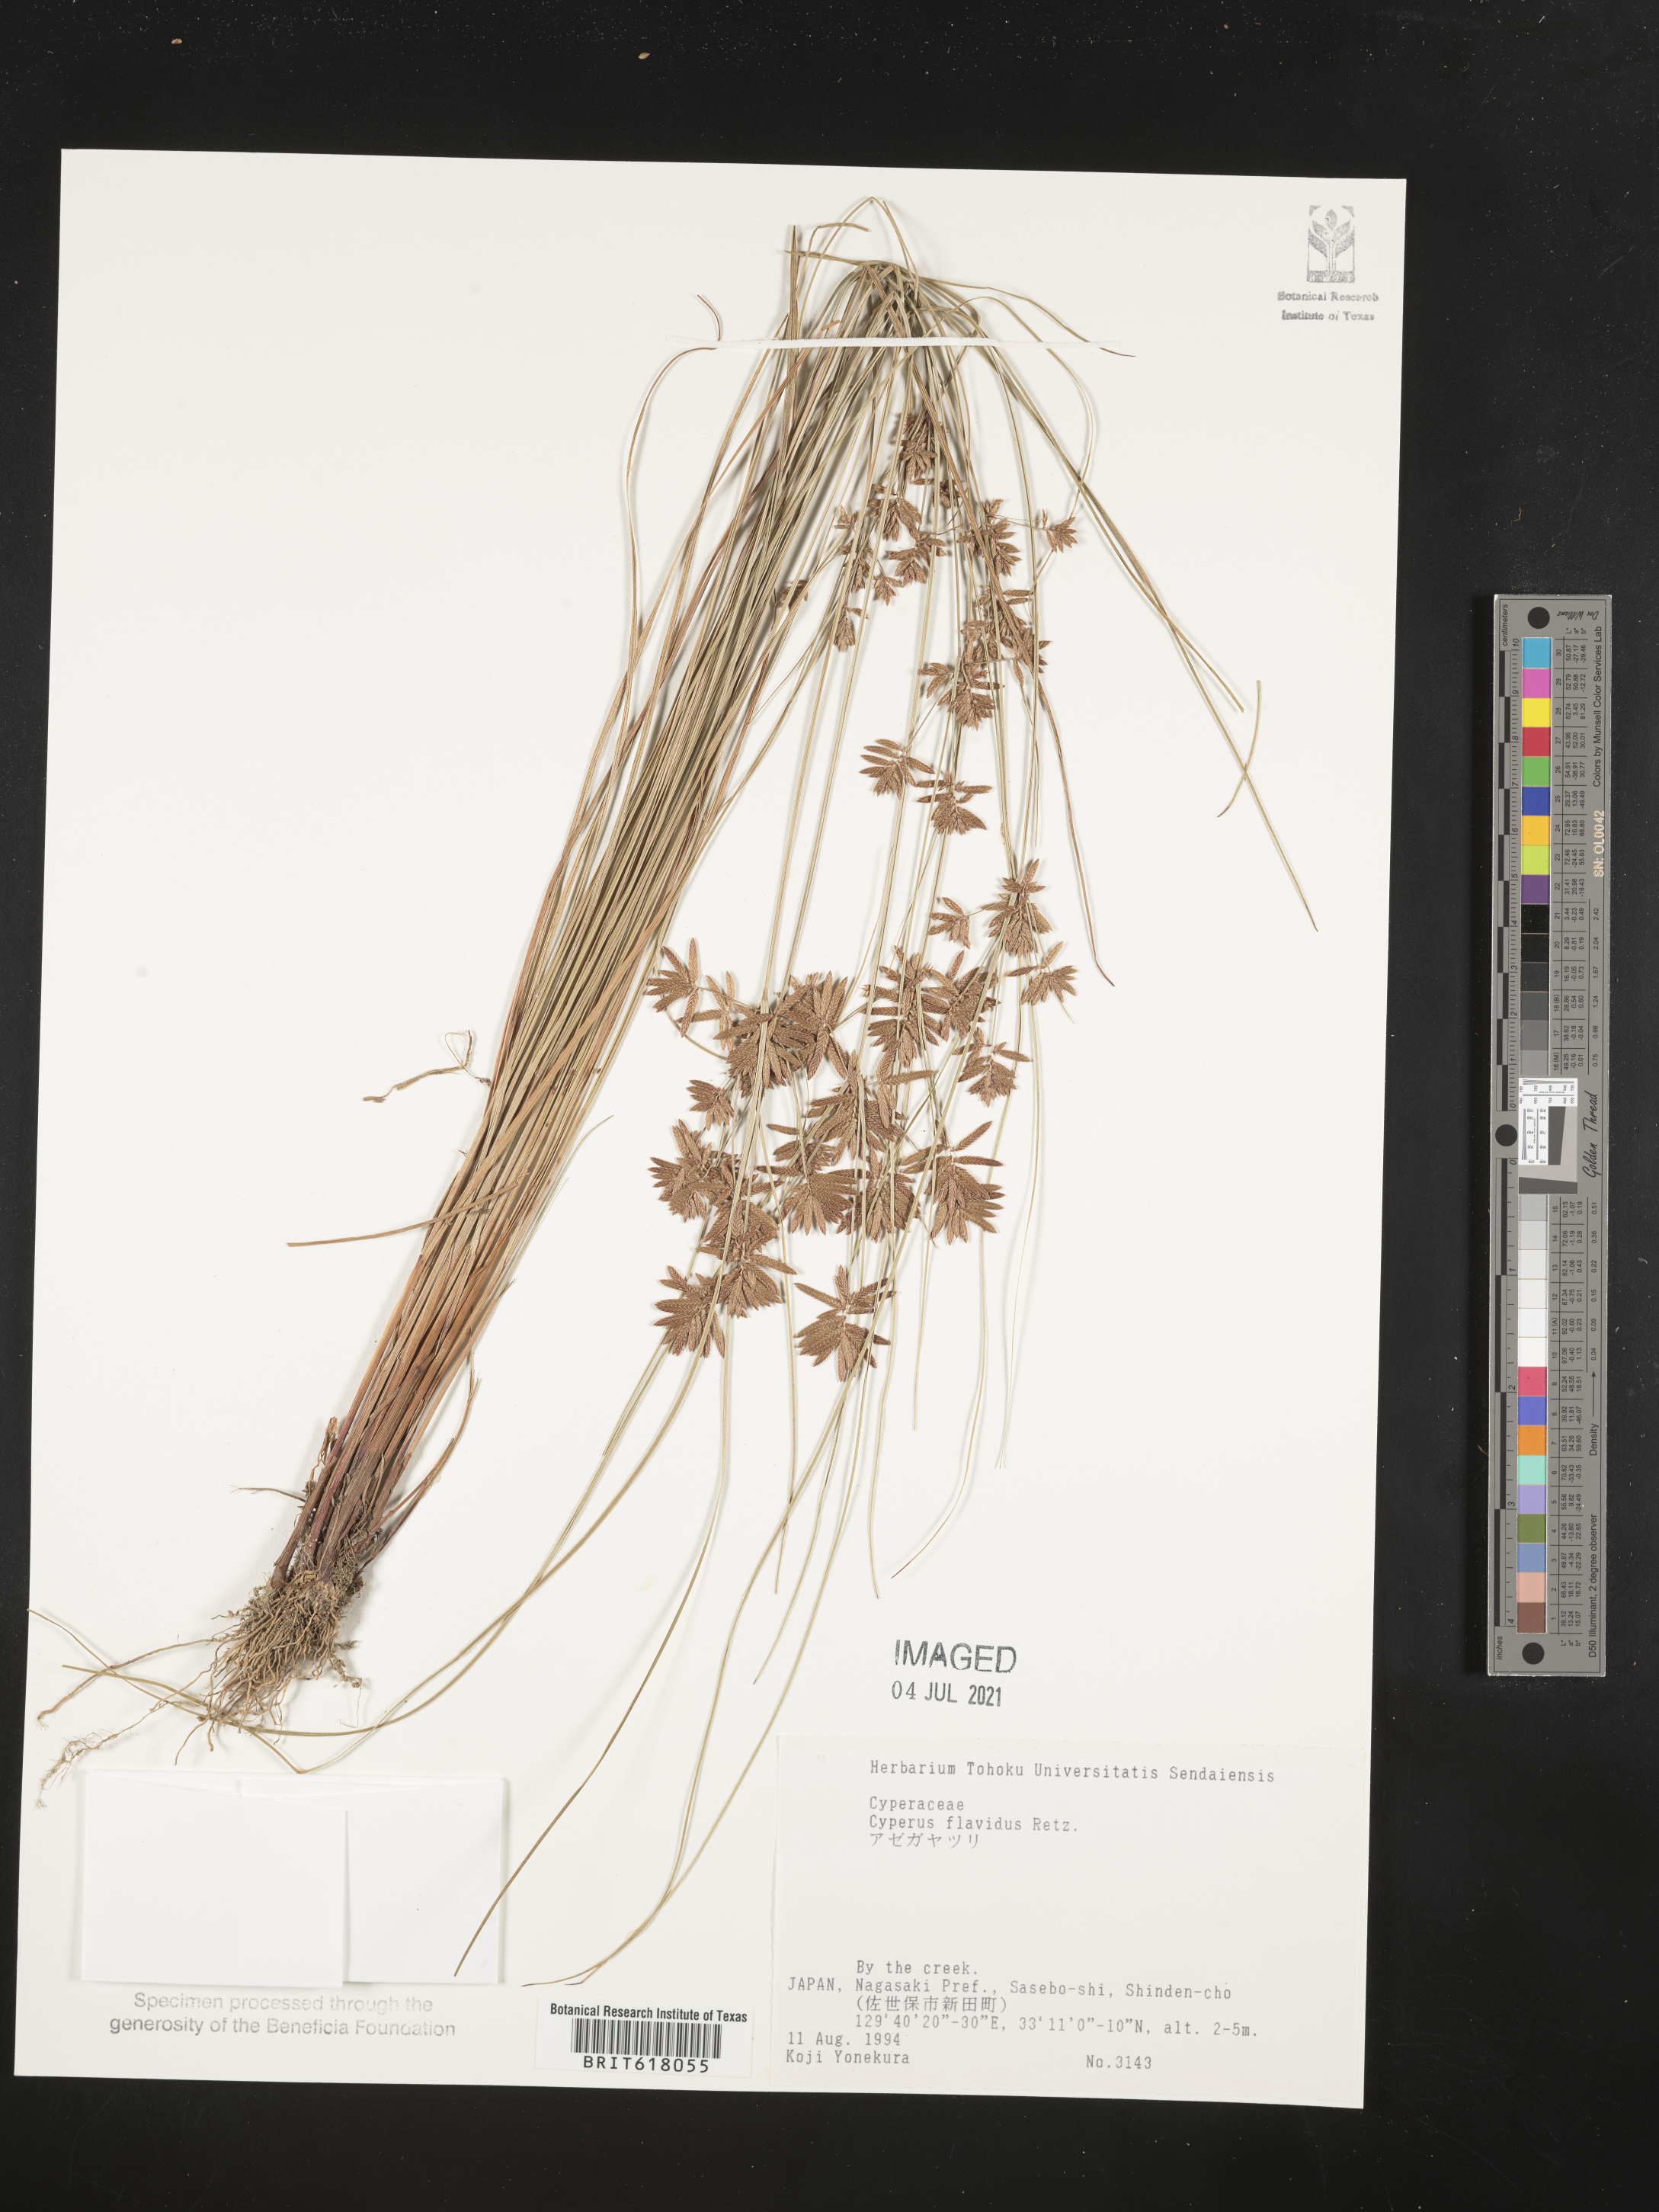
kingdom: Plantae
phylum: Tracheophyta
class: Liliopsida
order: Poales
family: Cyperaceae
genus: Cyperus
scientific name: Cyperus flavidus
